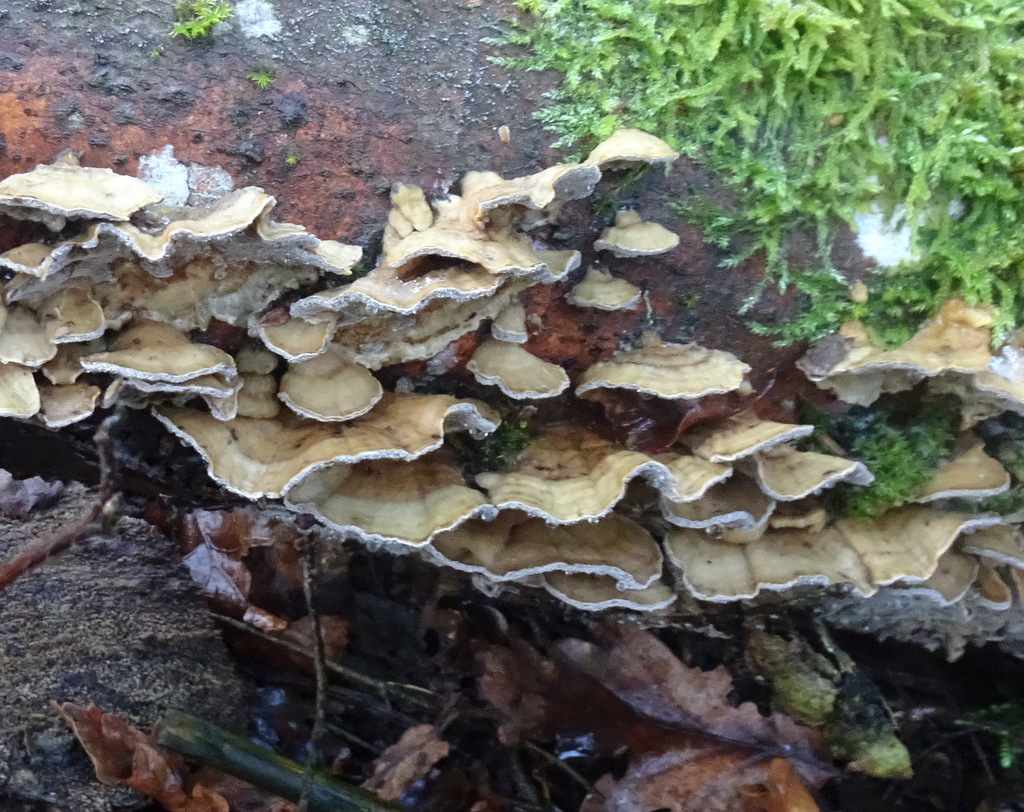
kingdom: Fungi
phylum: Basidiomycota
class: Agaricomycetes
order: Polyporales
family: Phanerochaetaceae
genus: Bjerkandera
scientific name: Bjerkandera
